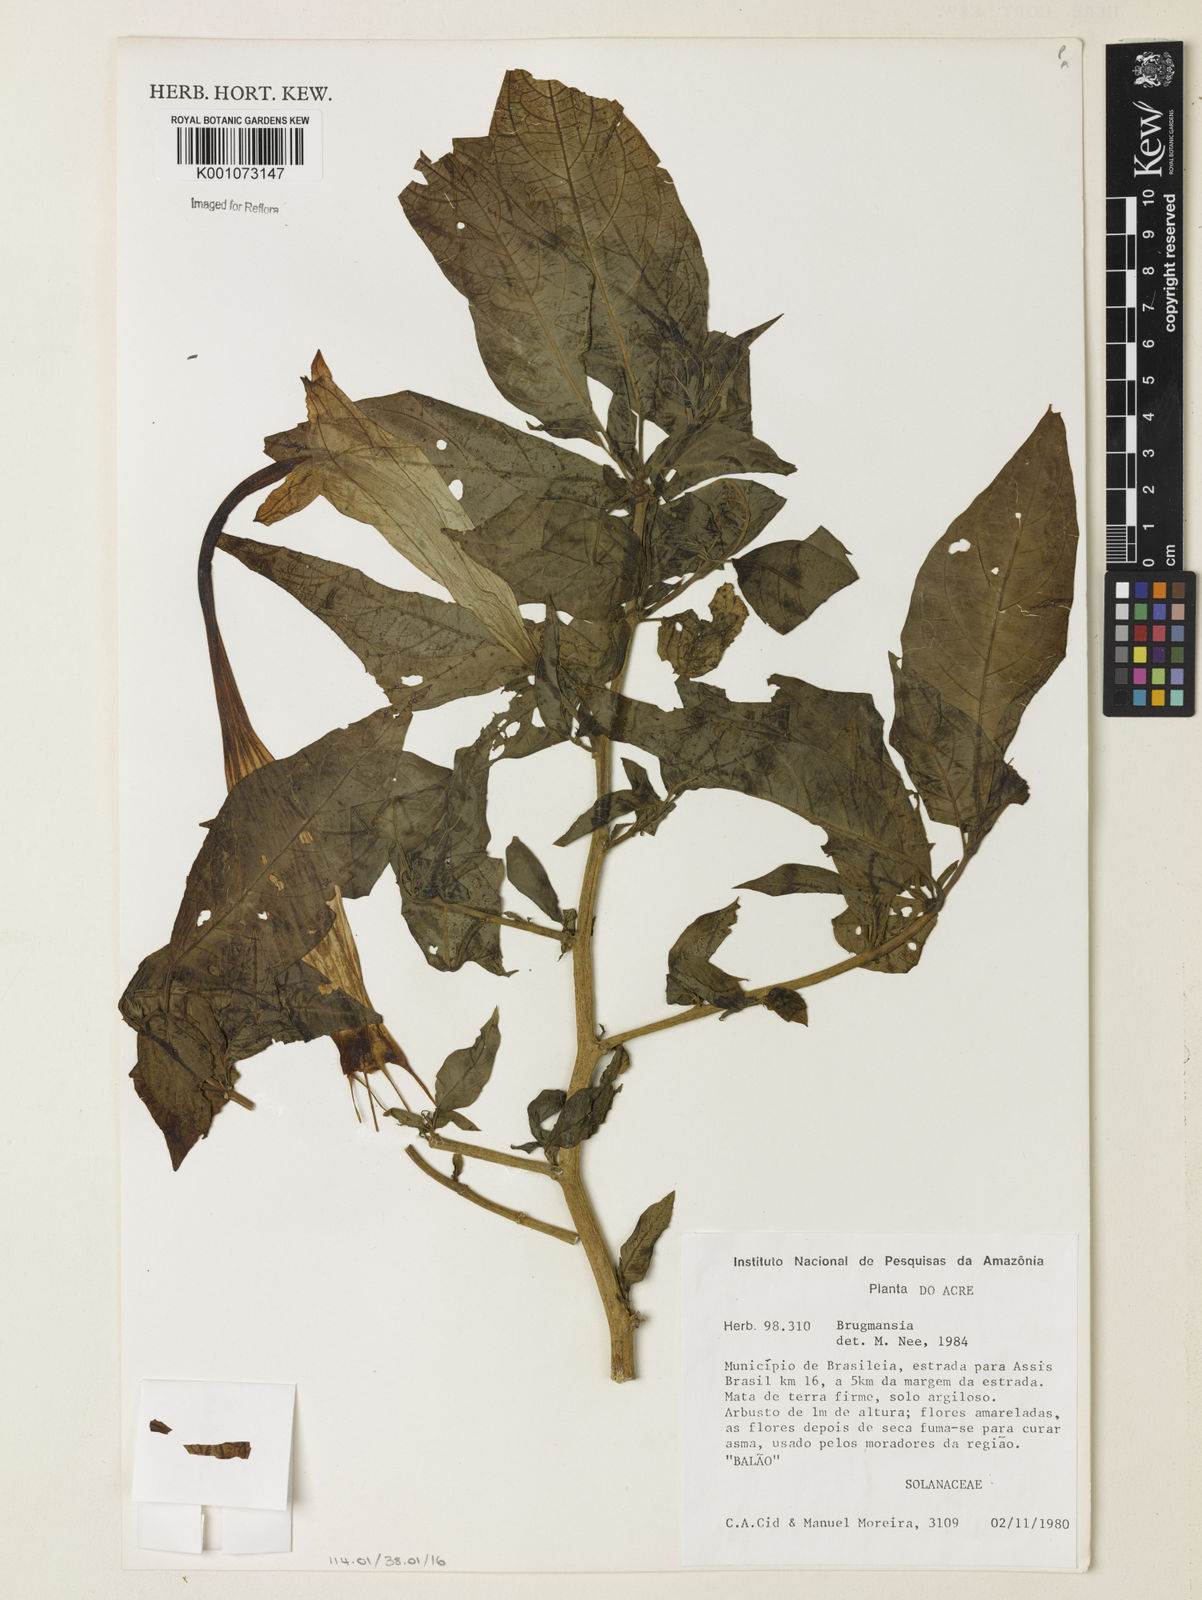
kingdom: Plantae
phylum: Tracheophyta
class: Magnoliopsida
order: Solanales
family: Solanaceae
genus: Brugmansia
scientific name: Brugmansia
